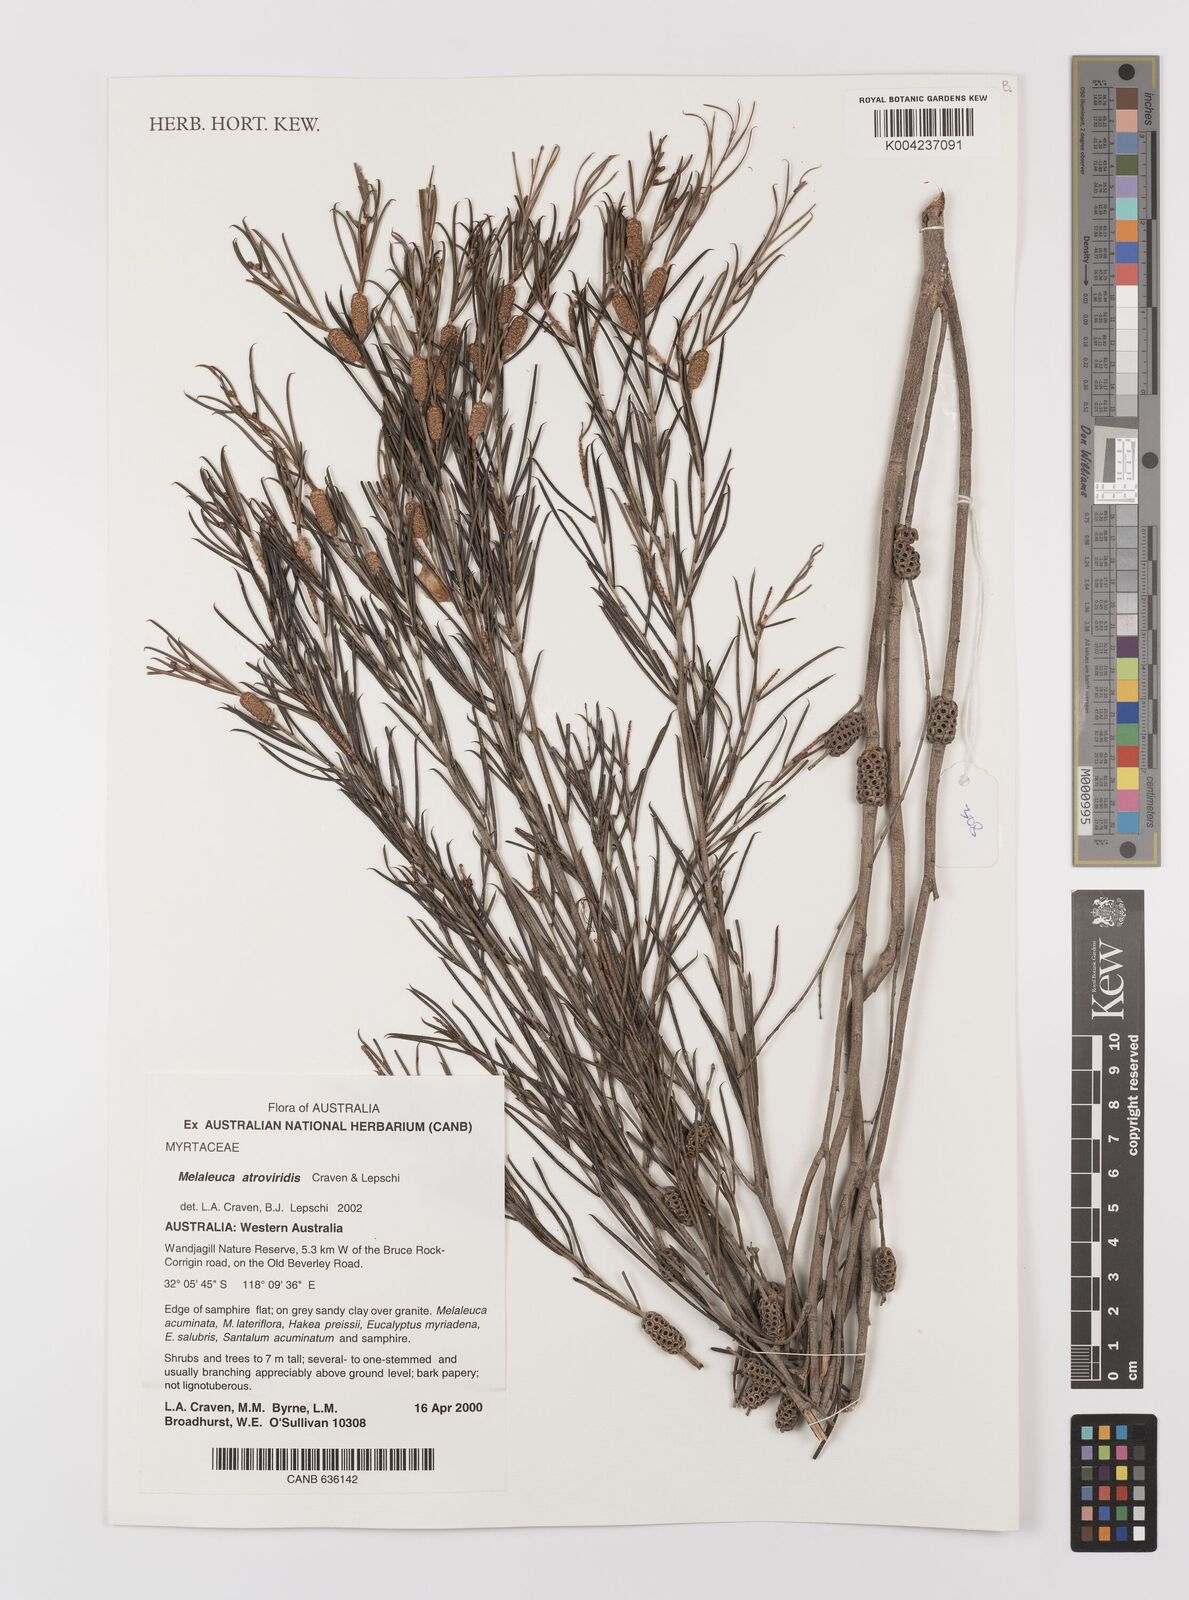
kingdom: Plantae
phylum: Tracheophyta
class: Magnoliopsida
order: Myrtales
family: Myrtaceae
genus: Melaleuca
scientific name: Melaleuca atroviridis
